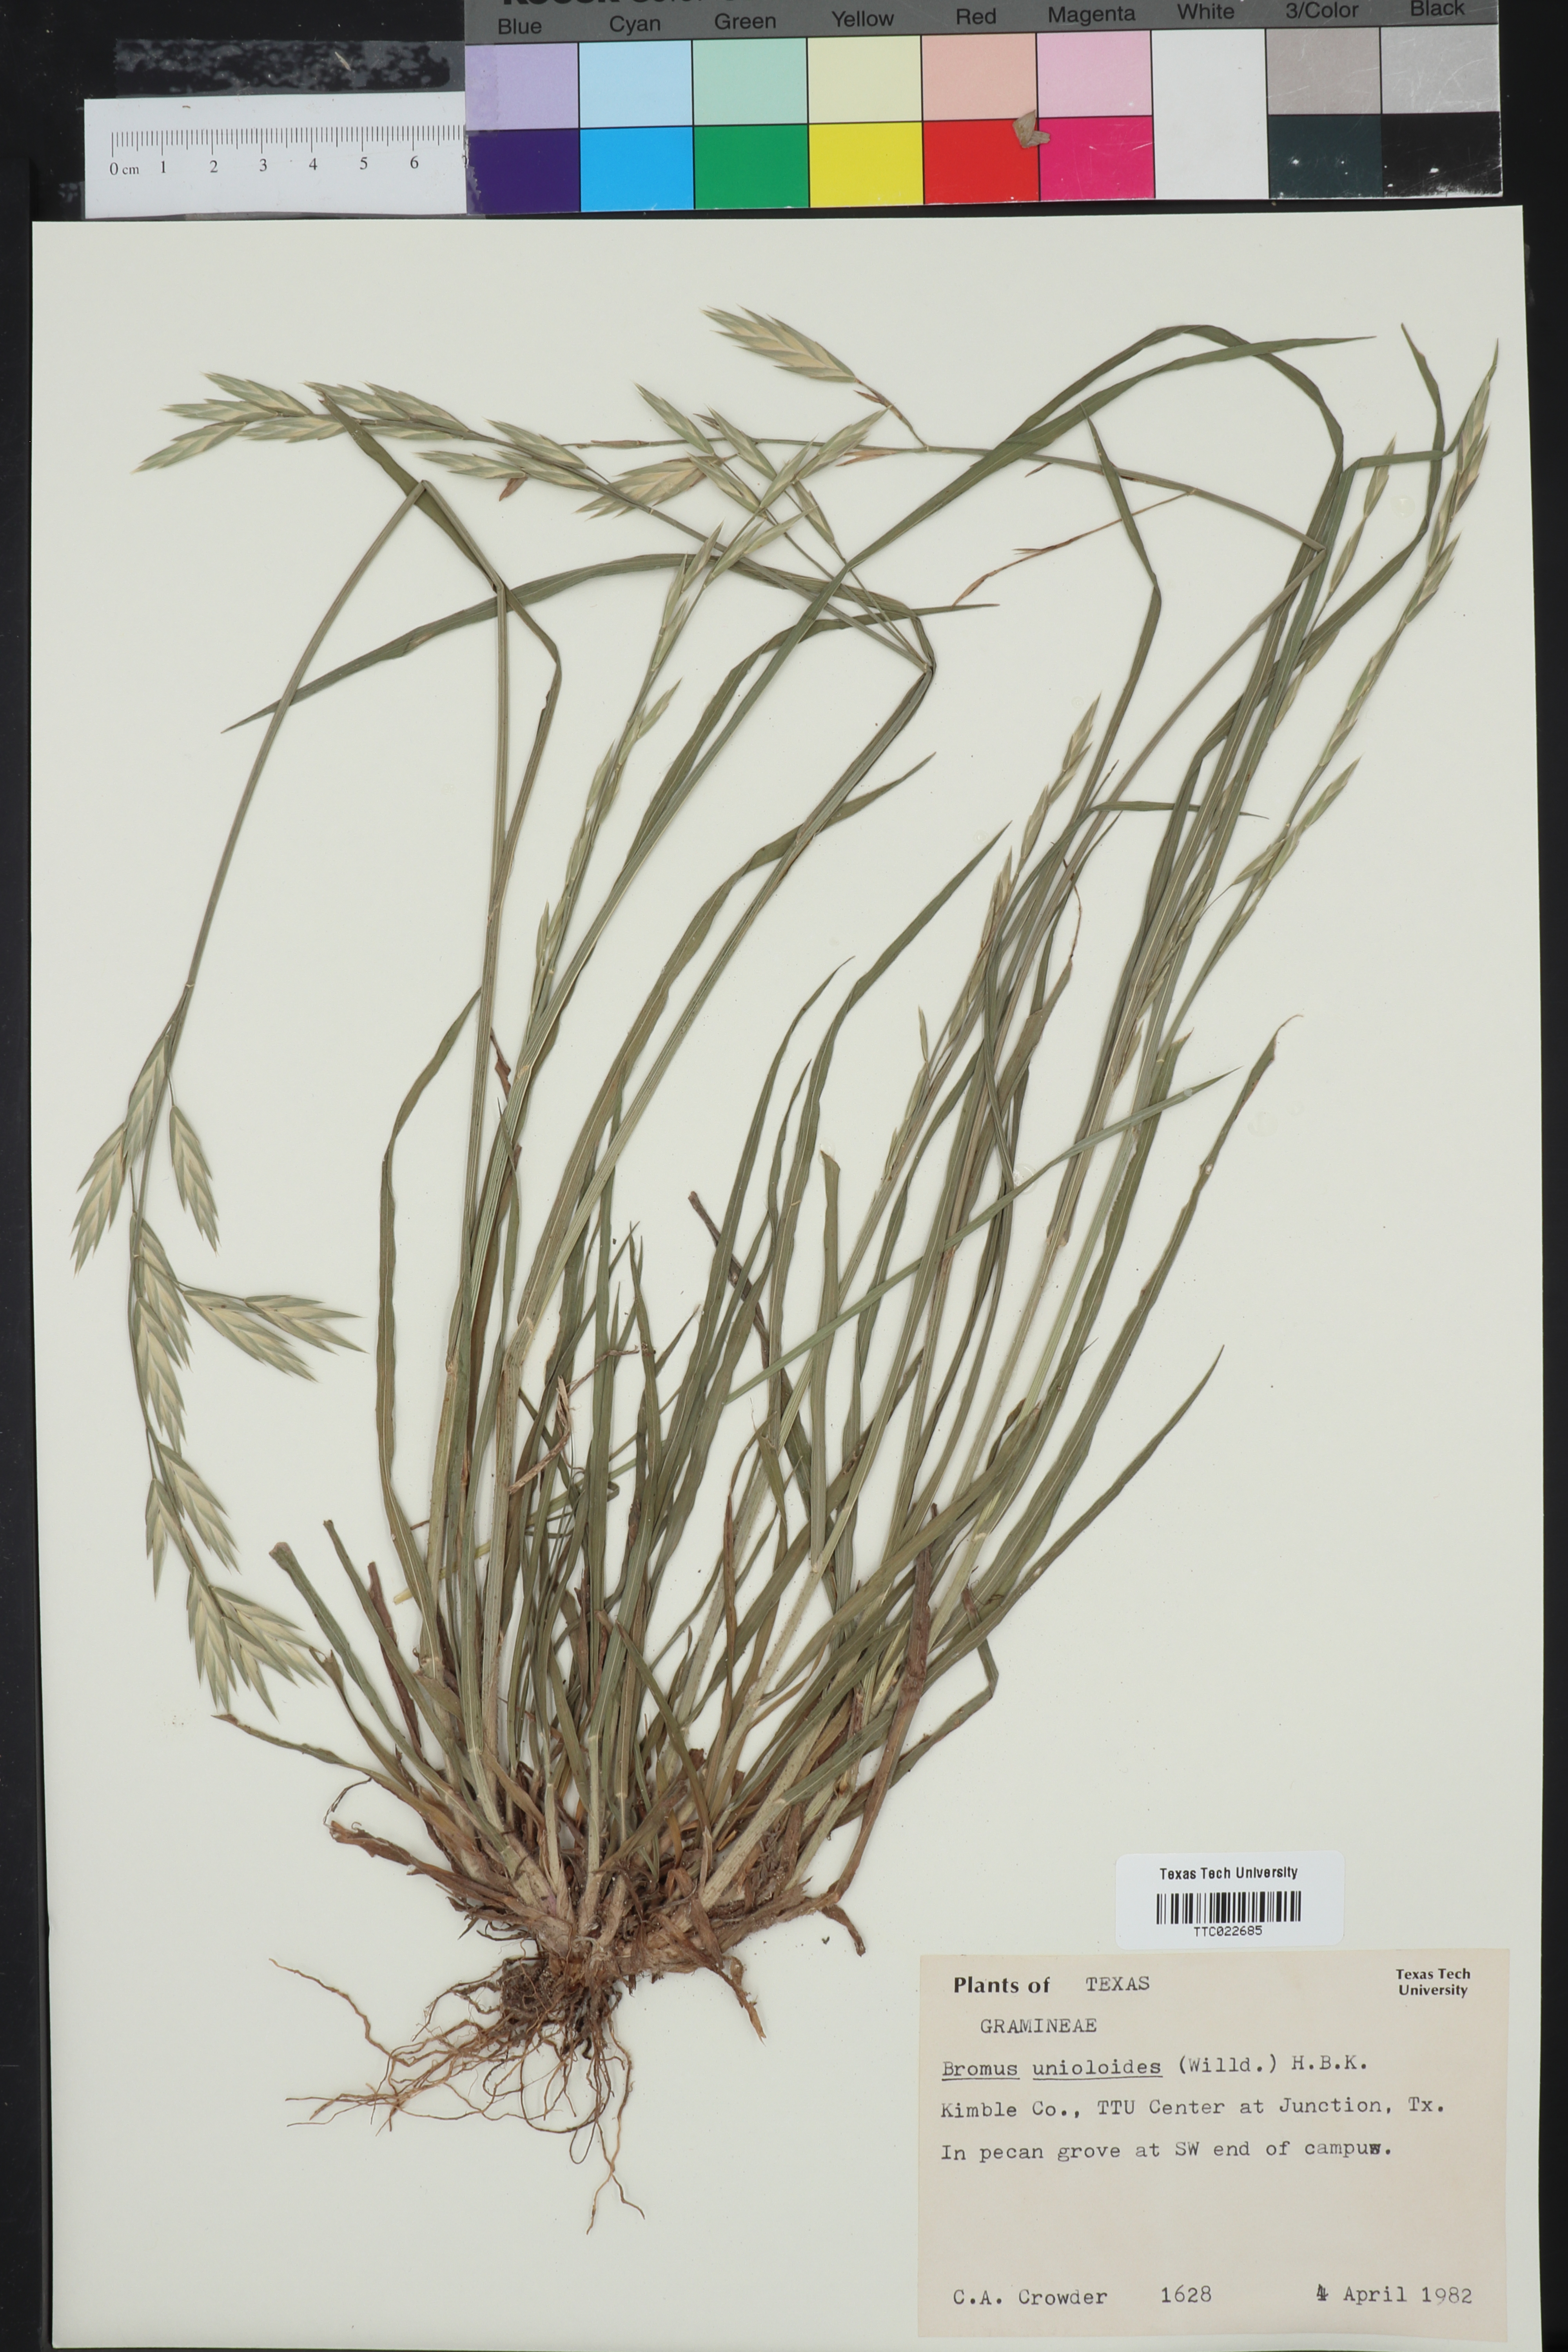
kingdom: Plantae
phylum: Tracheophyta
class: Liliopsida
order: Poales
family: Poaceae
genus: Bromus
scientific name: Bromus catharticus
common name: Rescuegrass
